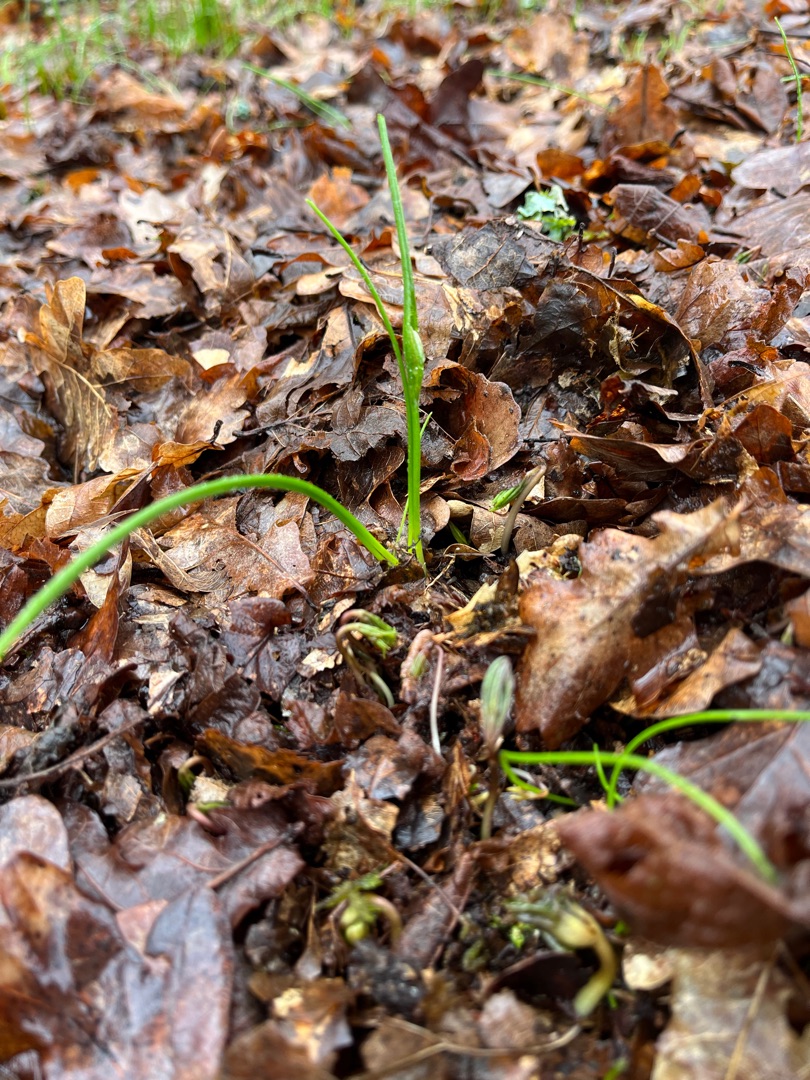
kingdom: Plantae
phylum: Tracheophyta
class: Liliopsida
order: Liliales
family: Liliaceae
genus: Gagea
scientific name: Gagea spathacea
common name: Hylster-guldstjerne
